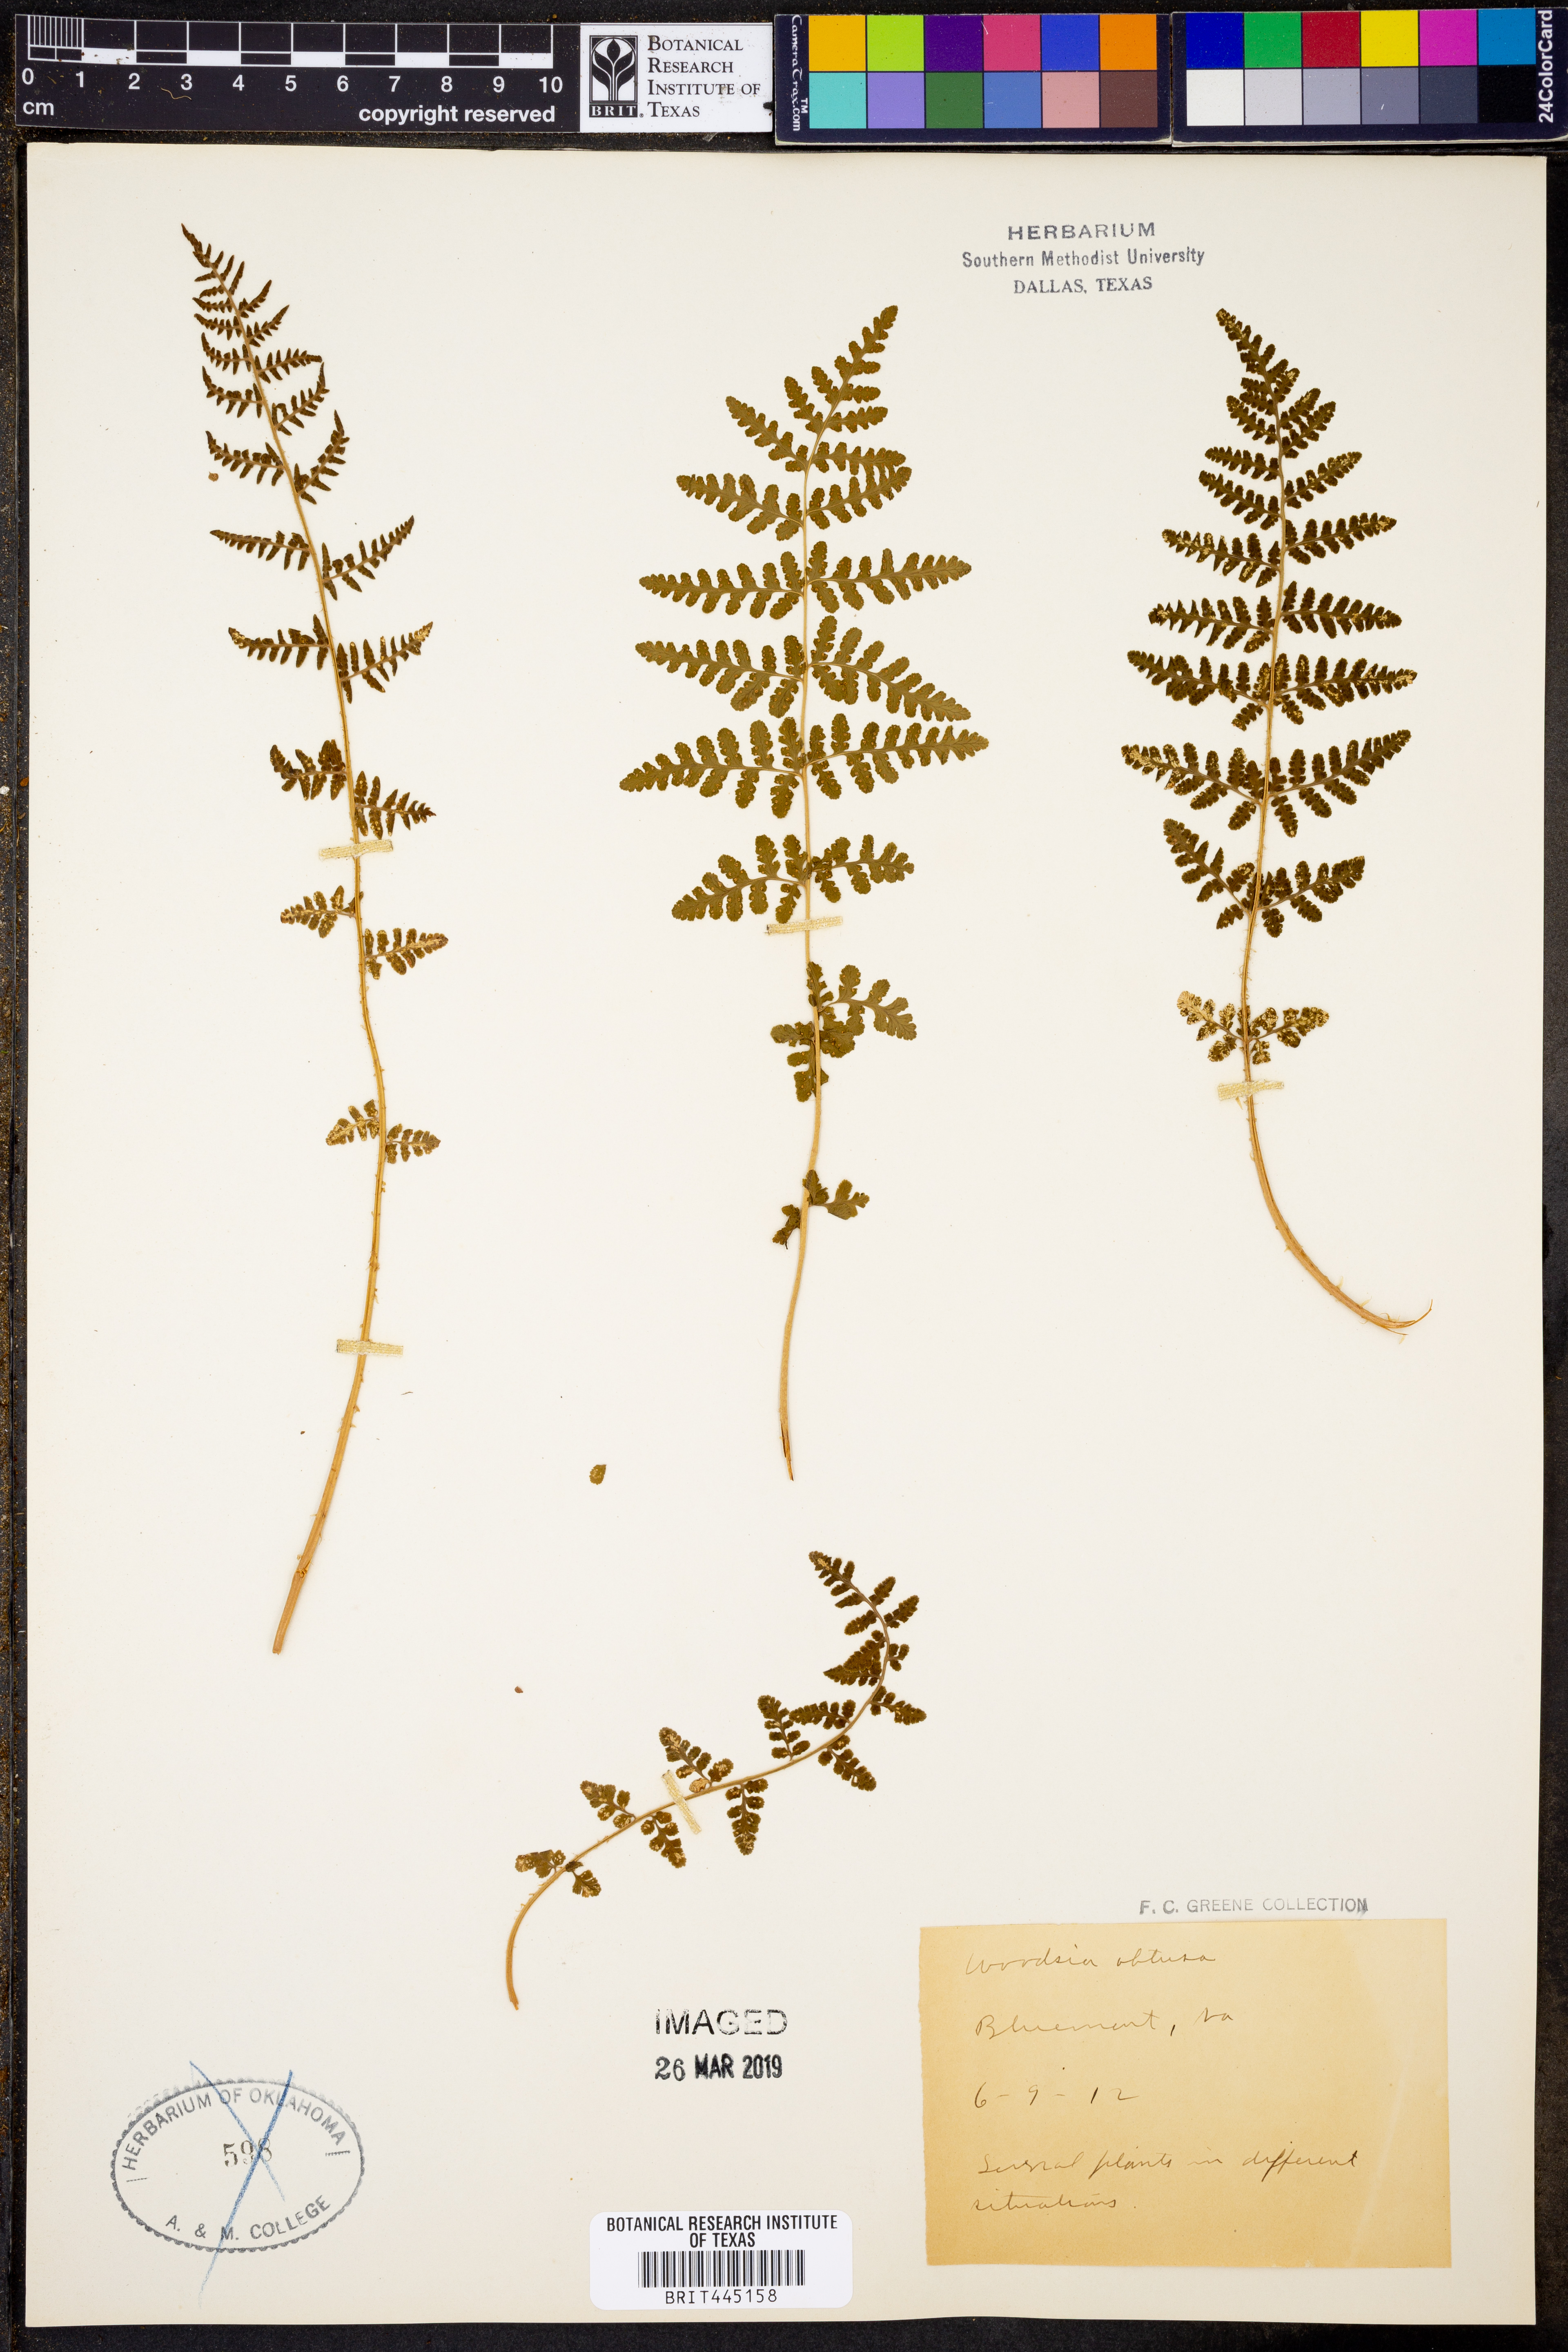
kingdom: Plantae
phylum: Tracheophyta
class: Polypodiopsida
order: Polypodiales
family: Woodsiaceae
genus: Physematium
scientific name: Physematium obtusum
